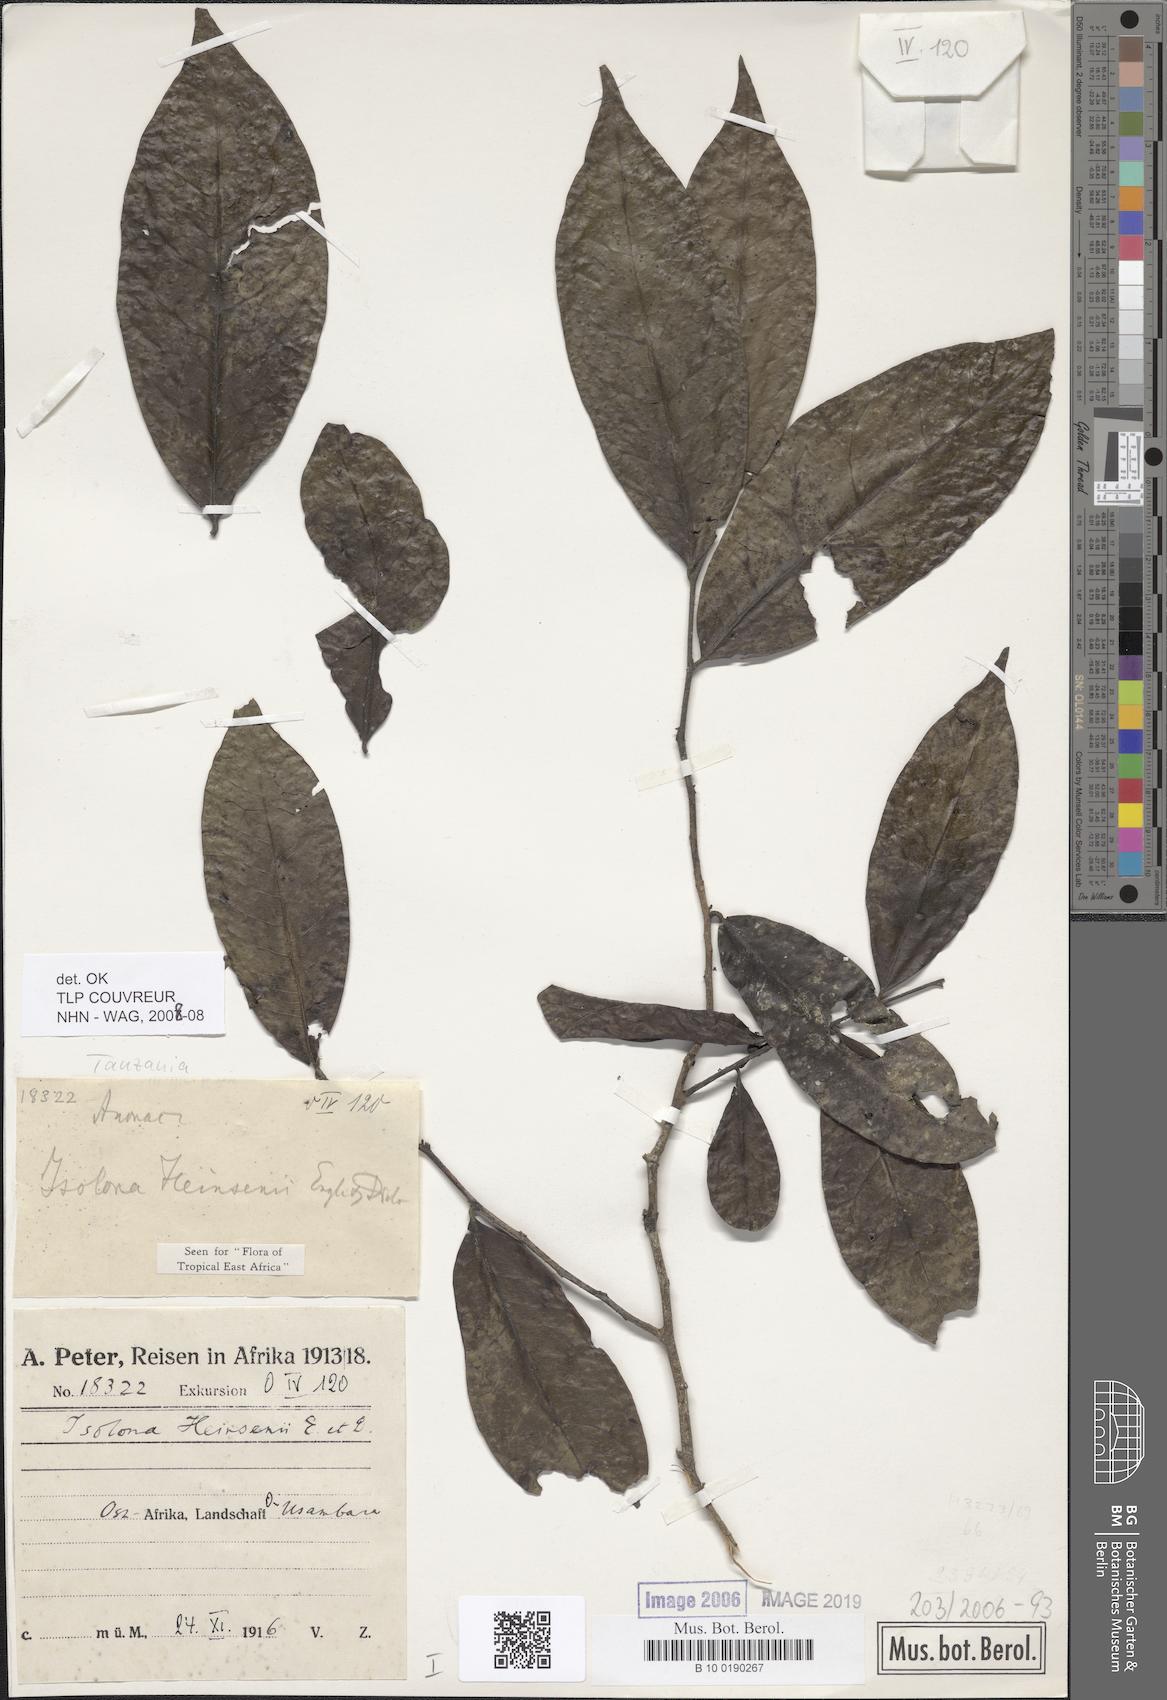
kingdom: Plantae
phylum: Tracheophyta
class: Magnoliopsida
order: Magnoliales
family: Annonaceae
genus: Isolona
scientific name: Isolona heinsenii
